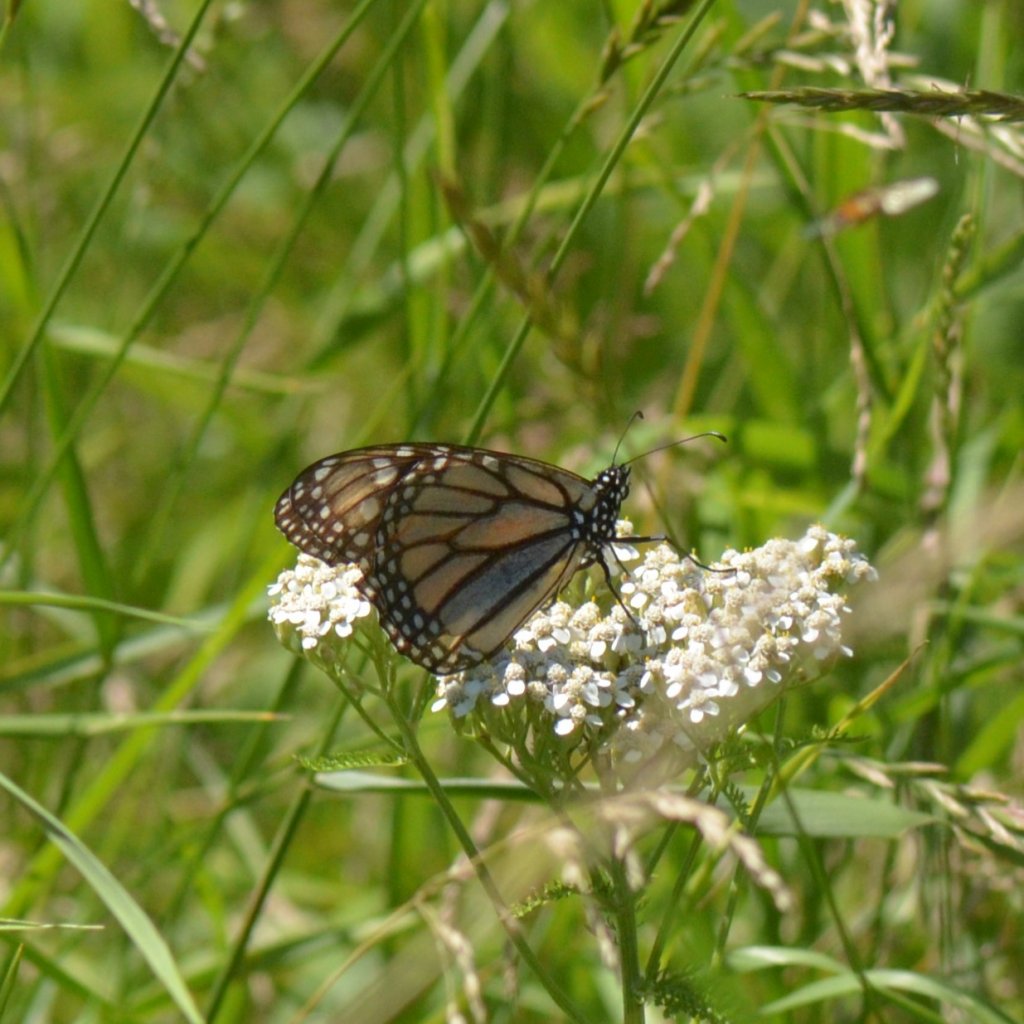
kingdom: Animalia
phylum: Arthropoda
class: Insecta
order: Lepidoptera
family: Nymphalidae
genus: Danaus
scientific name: Danaus plexippus
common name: Monarch
